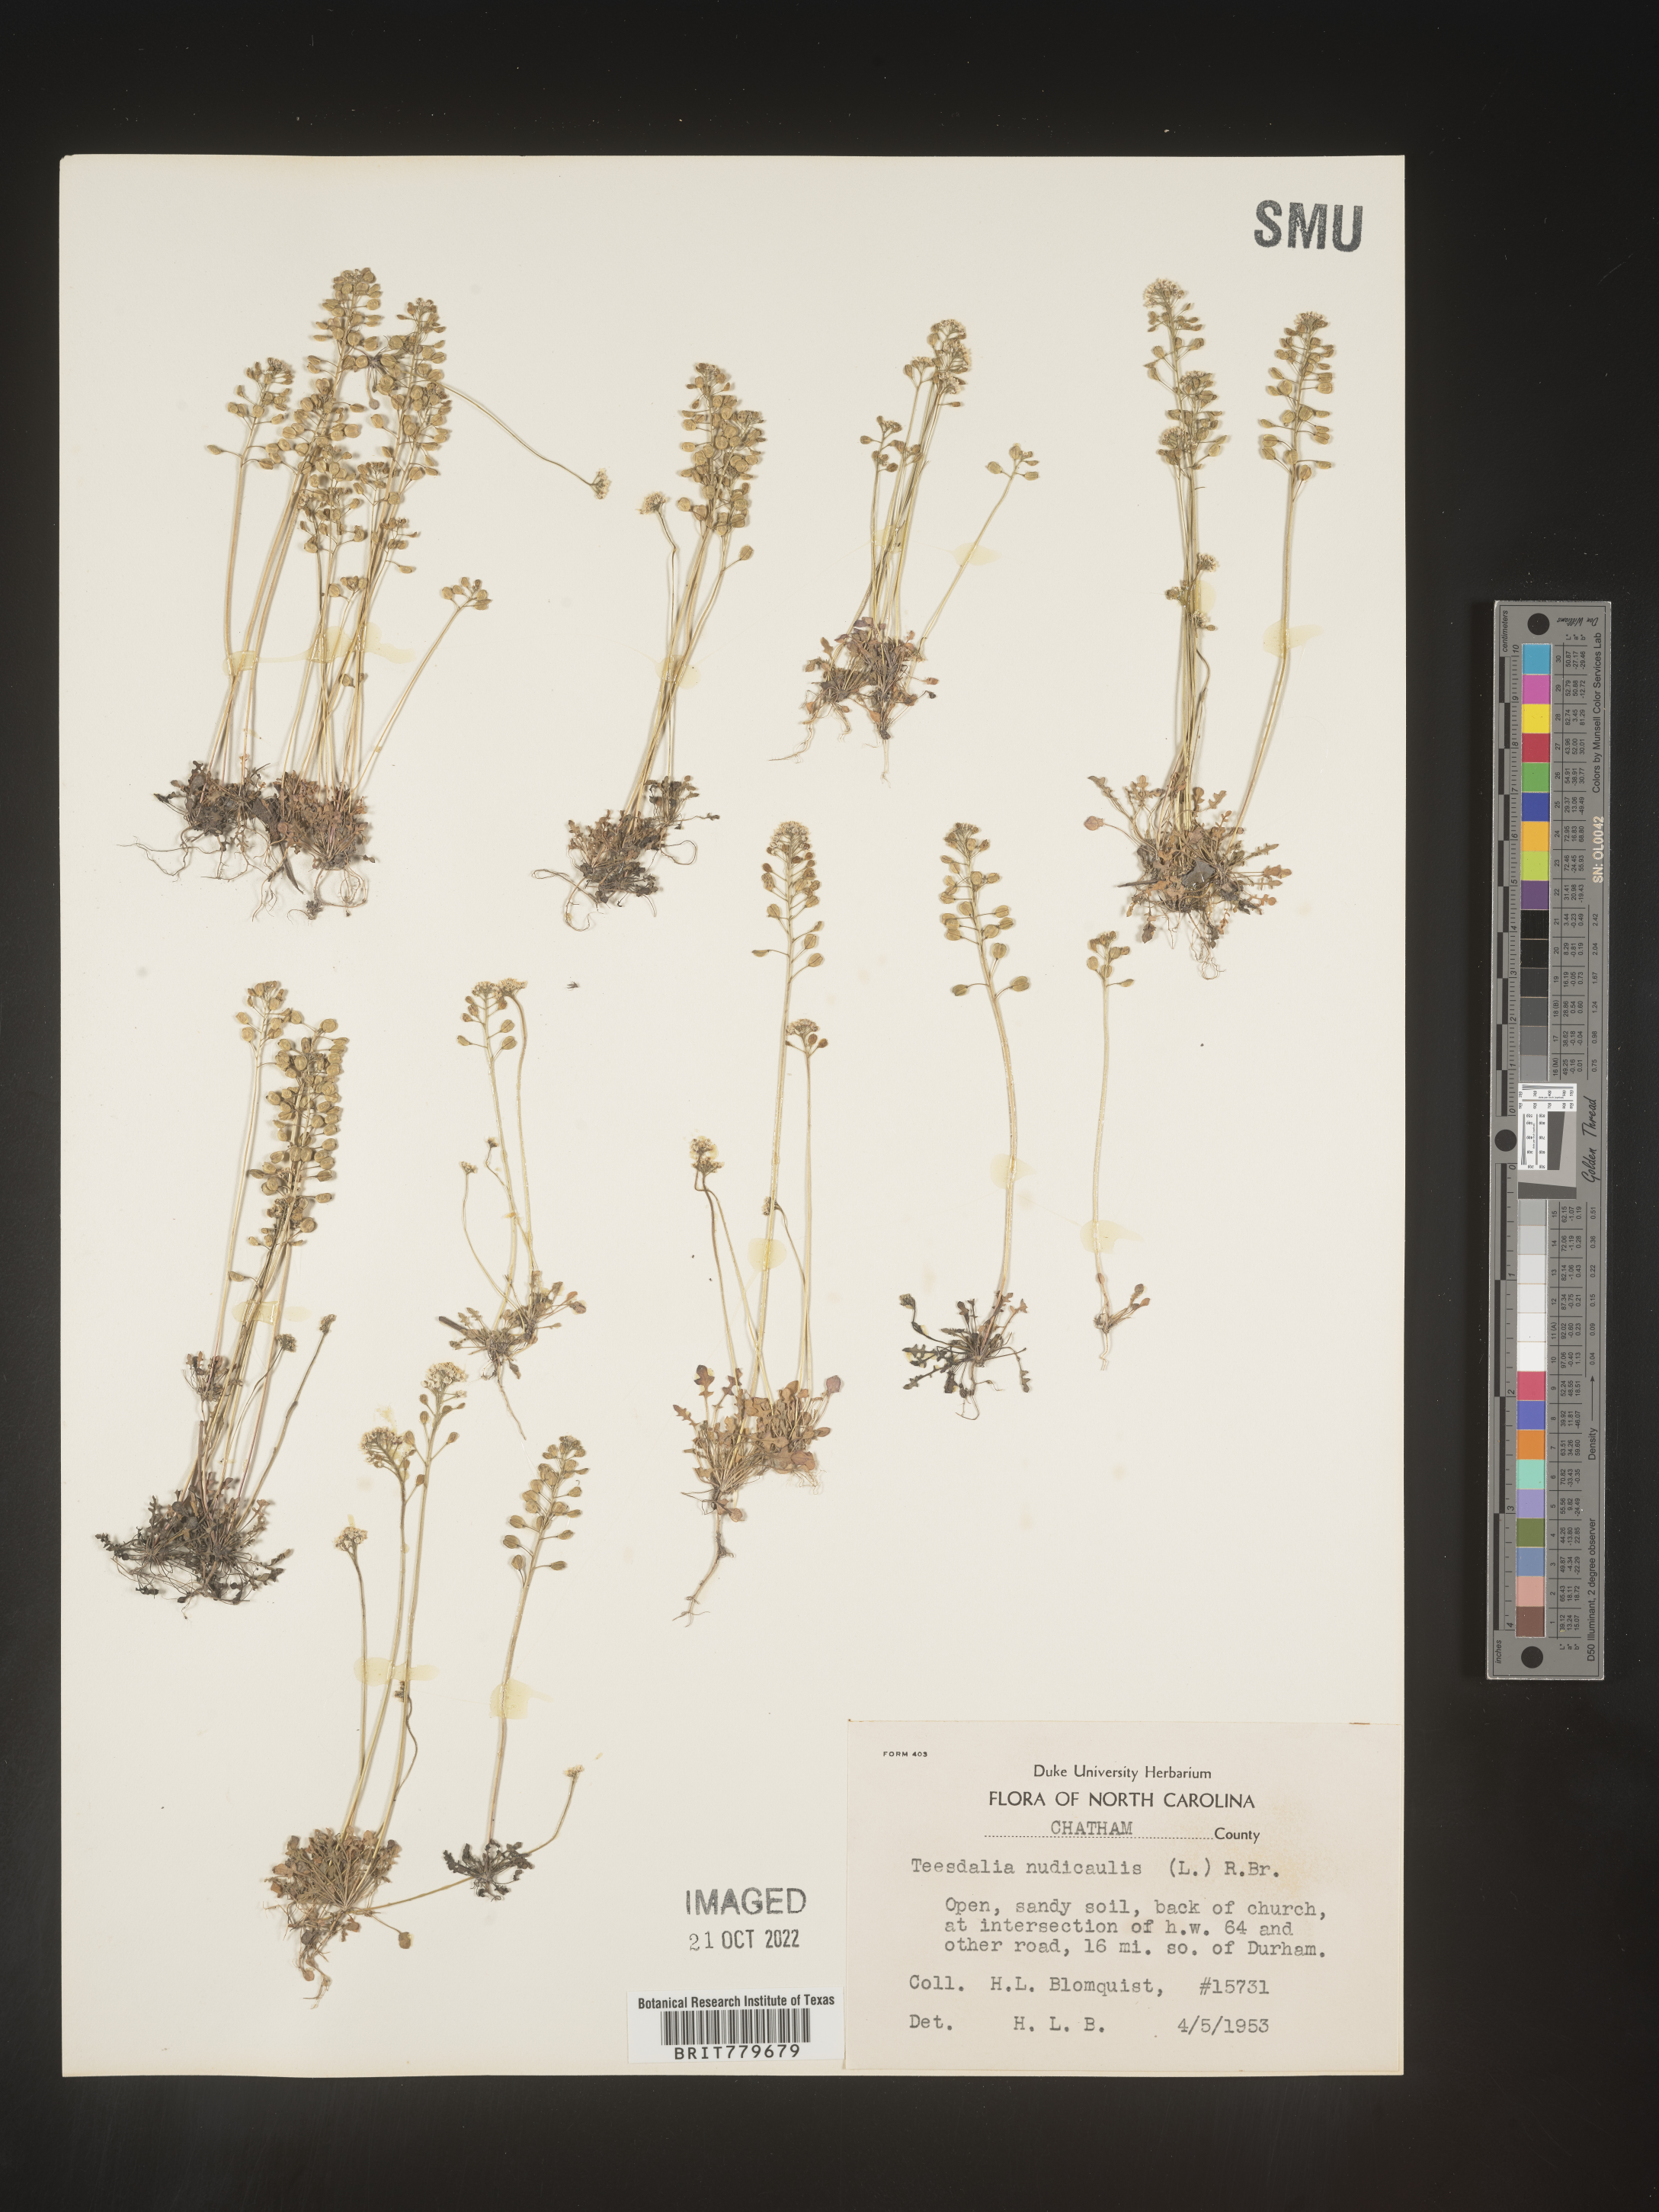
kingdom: Plantae
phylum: Tracheophyta
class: Magnoliopsida
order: Brassicales
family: Brassicaceae
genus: Teesdalia
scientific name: Teesdalia
